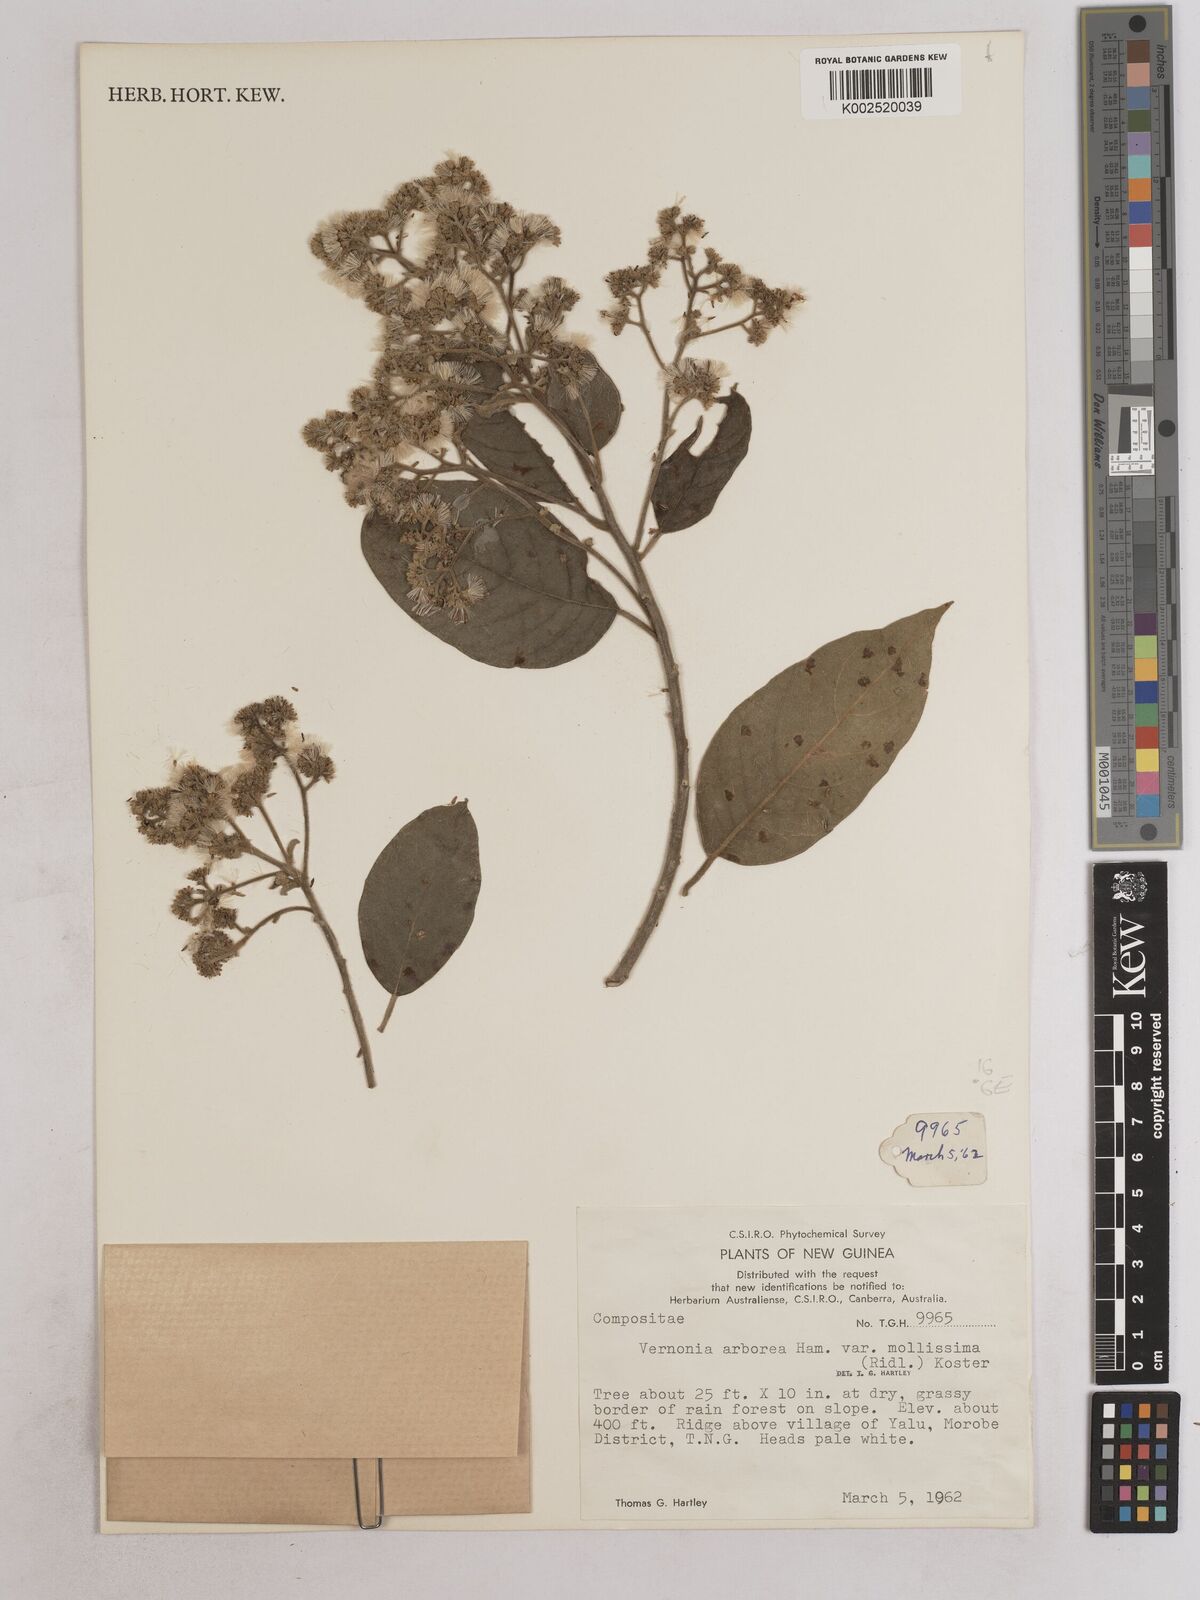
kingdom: Plantae
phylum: Tracheophyta
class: Magnoliopsida
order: Asterales
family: Asteraceae
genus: Strobocalyx
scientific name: Strobocalyx arborea
